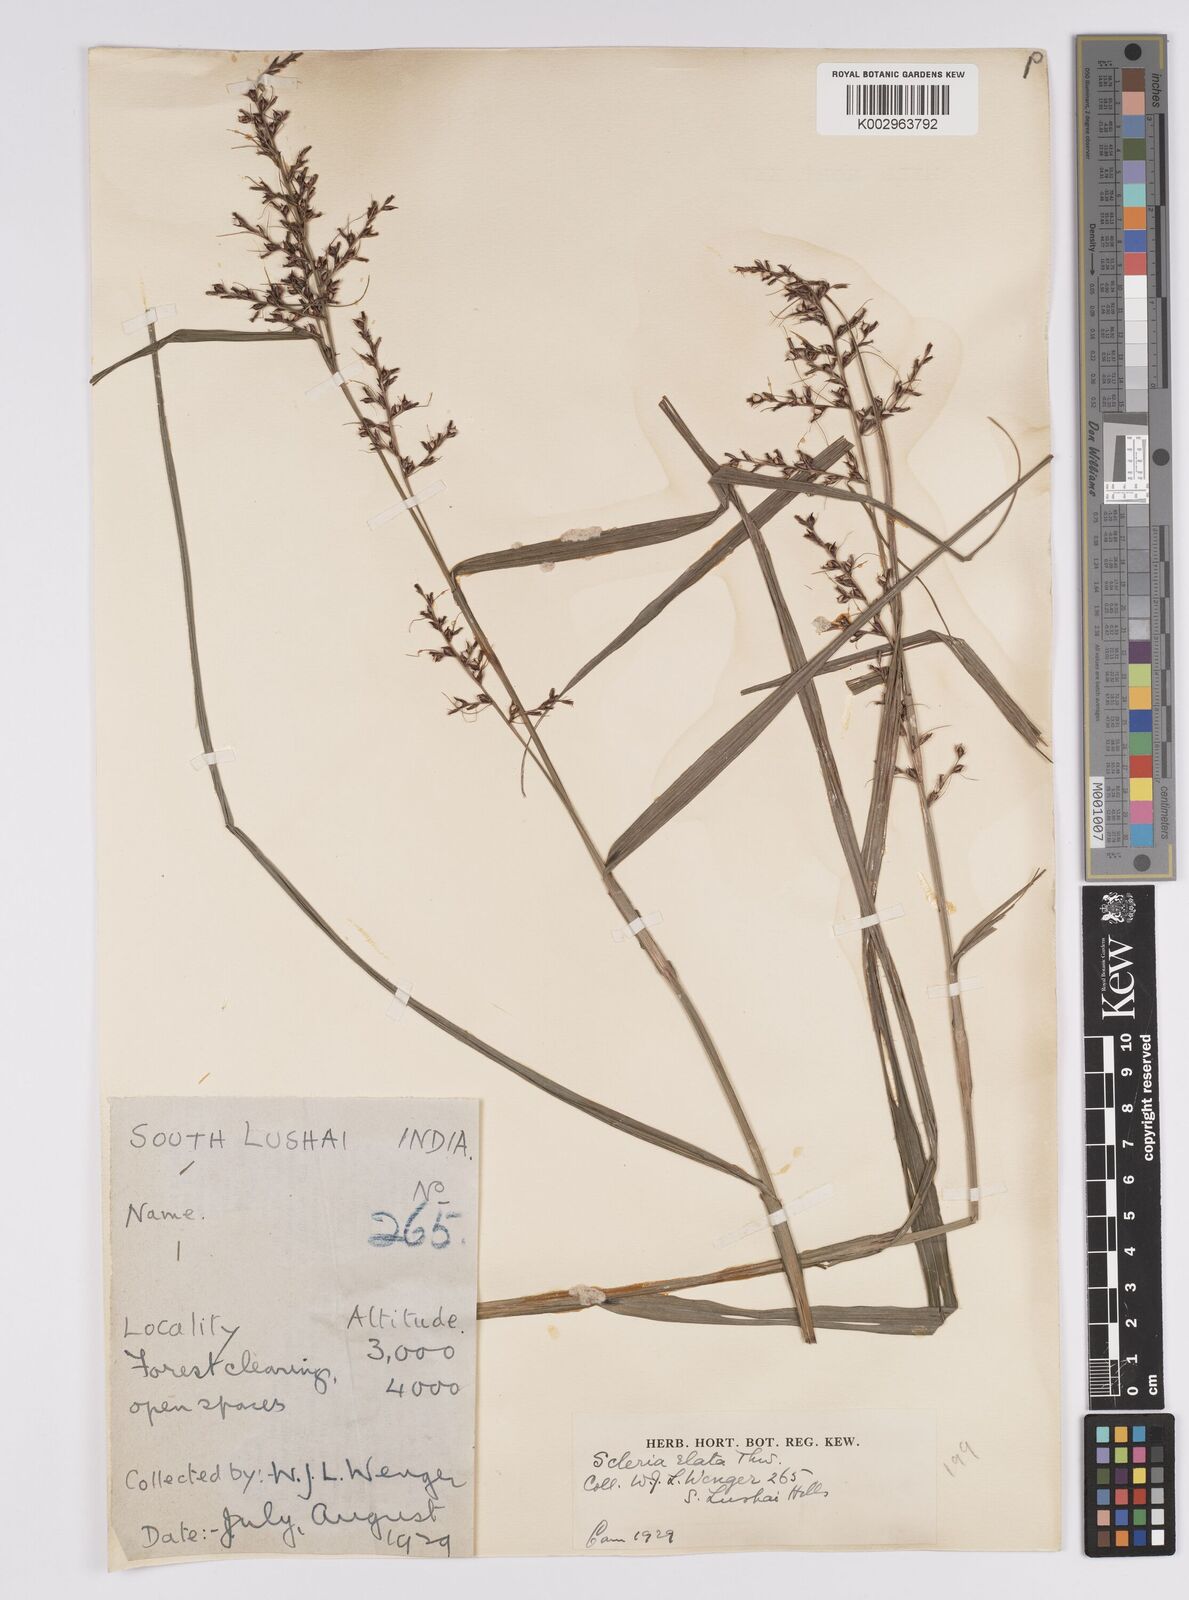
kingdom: Plantae
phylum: Tracheophyta
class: Liliopsida
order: Poales
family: Cyperaceae
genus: Scleria
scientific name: Scleria terrestris
